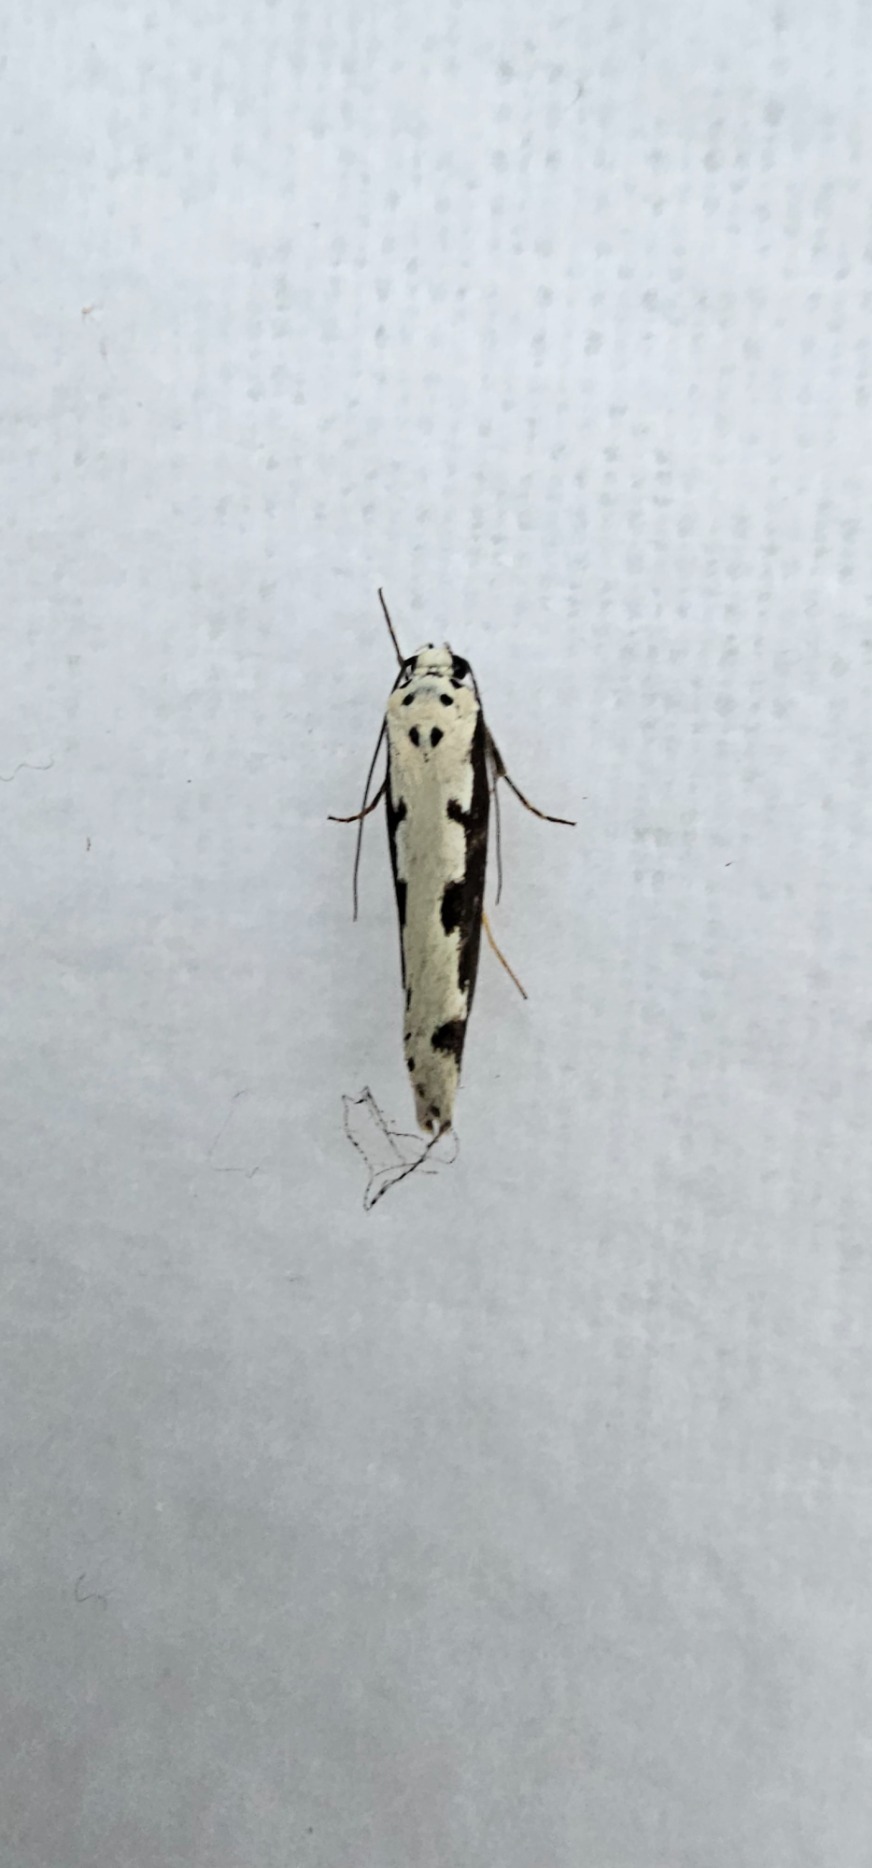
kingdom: Animalia
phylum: Arthropoda
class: Insecta
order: Lepidoptera
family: Ethmiidae
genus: Ethmia
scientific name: Ethmia bipunctella
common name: Slangehovedmøl
